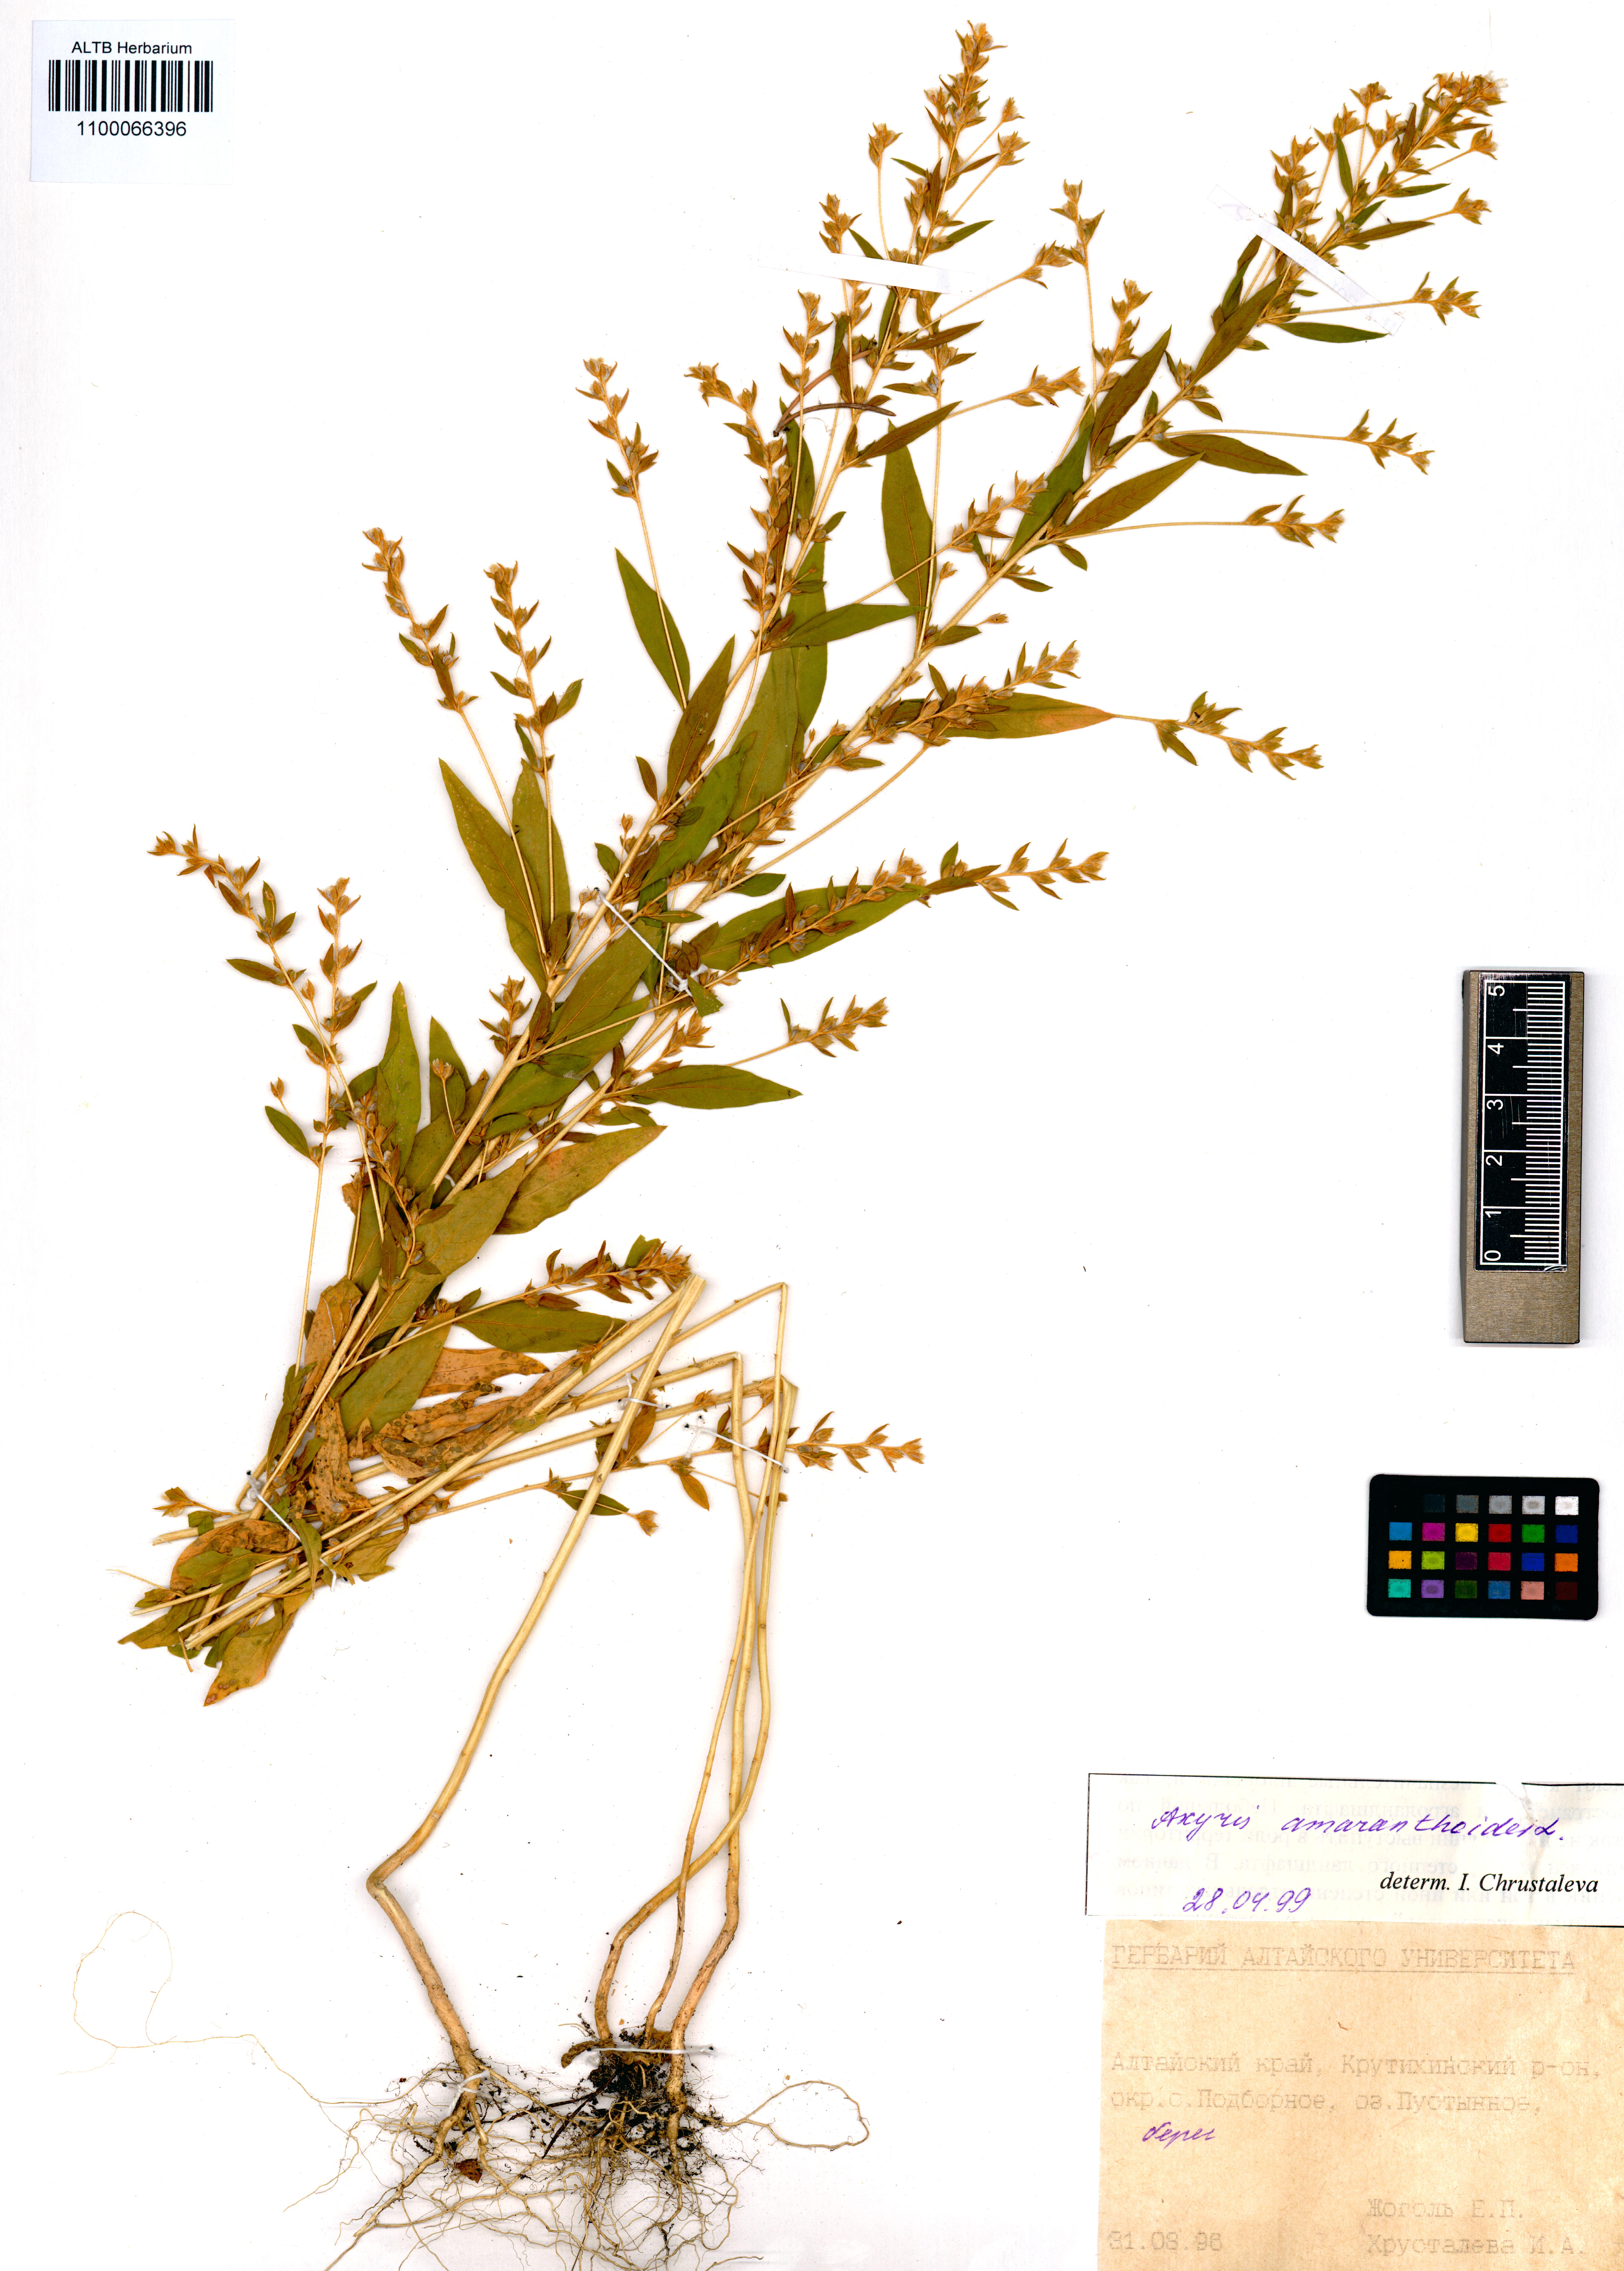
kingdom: Plantae
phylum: Tracheophyta
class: Magnoliopsida
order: Caryophyllales
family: Amaranthaceae
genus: Axyris
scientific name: Axyris amaranthoides
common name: Russian pigweed
